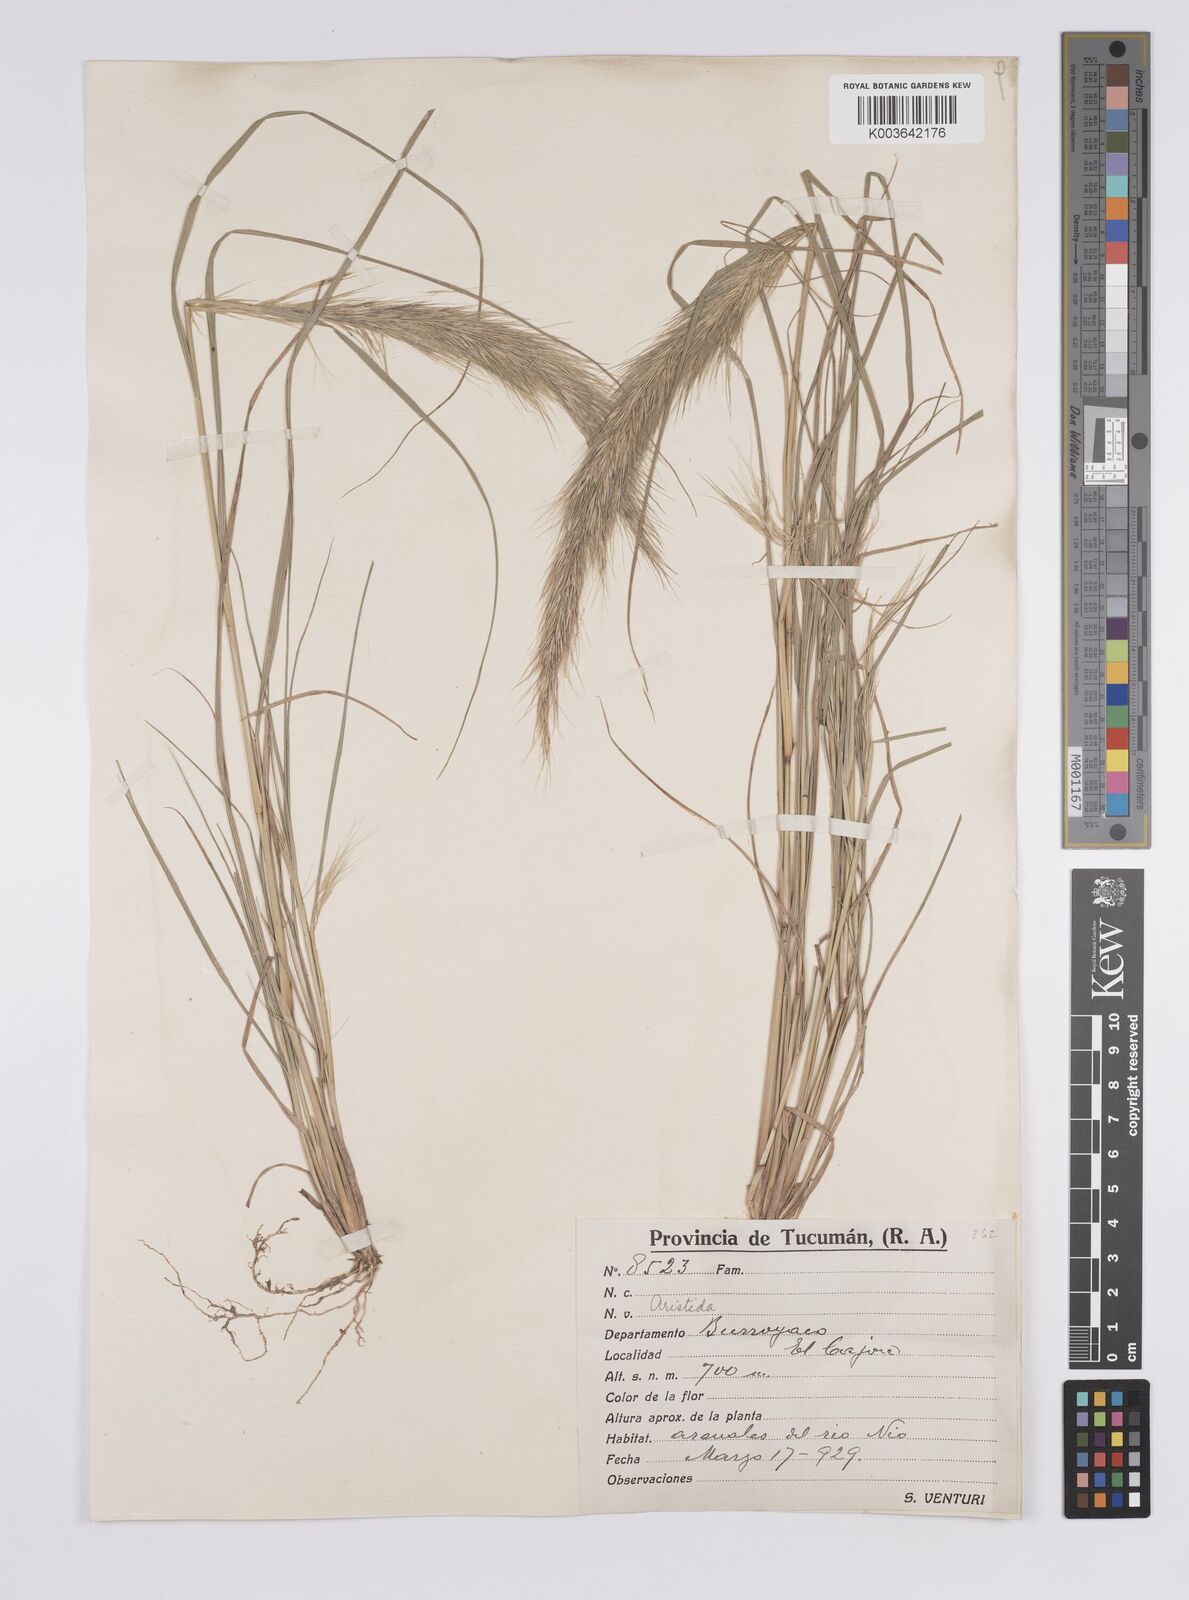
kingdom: Plantae
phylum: Tracheophyta
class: Liliopsida
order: Poales
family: Poaceae
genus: Aristida
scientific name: Aristida
